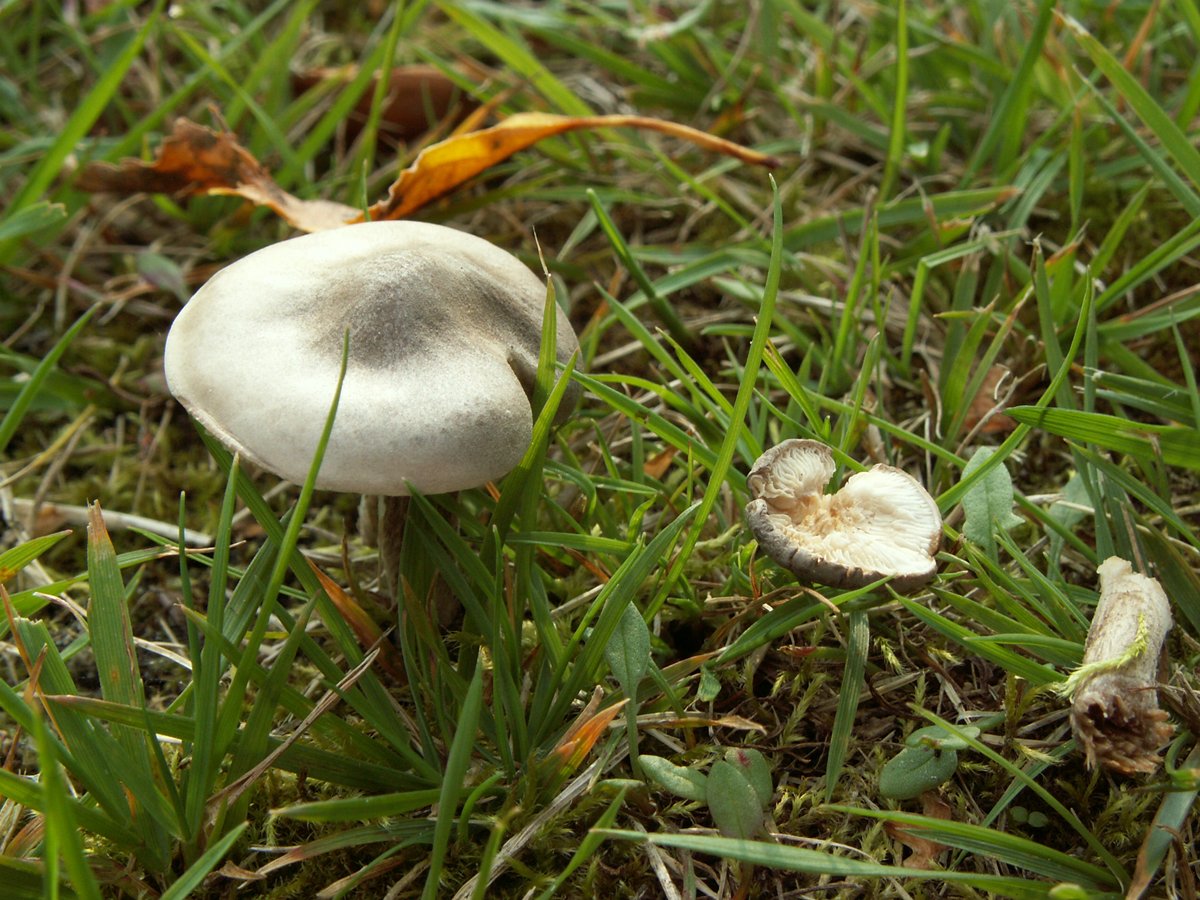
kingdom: Fungi
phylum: Basidiomycota
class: Agaricomycetes
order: Agaricales
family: Tricholomataceae
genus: Melanoleuca
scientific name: Melanoleuca exscissa
